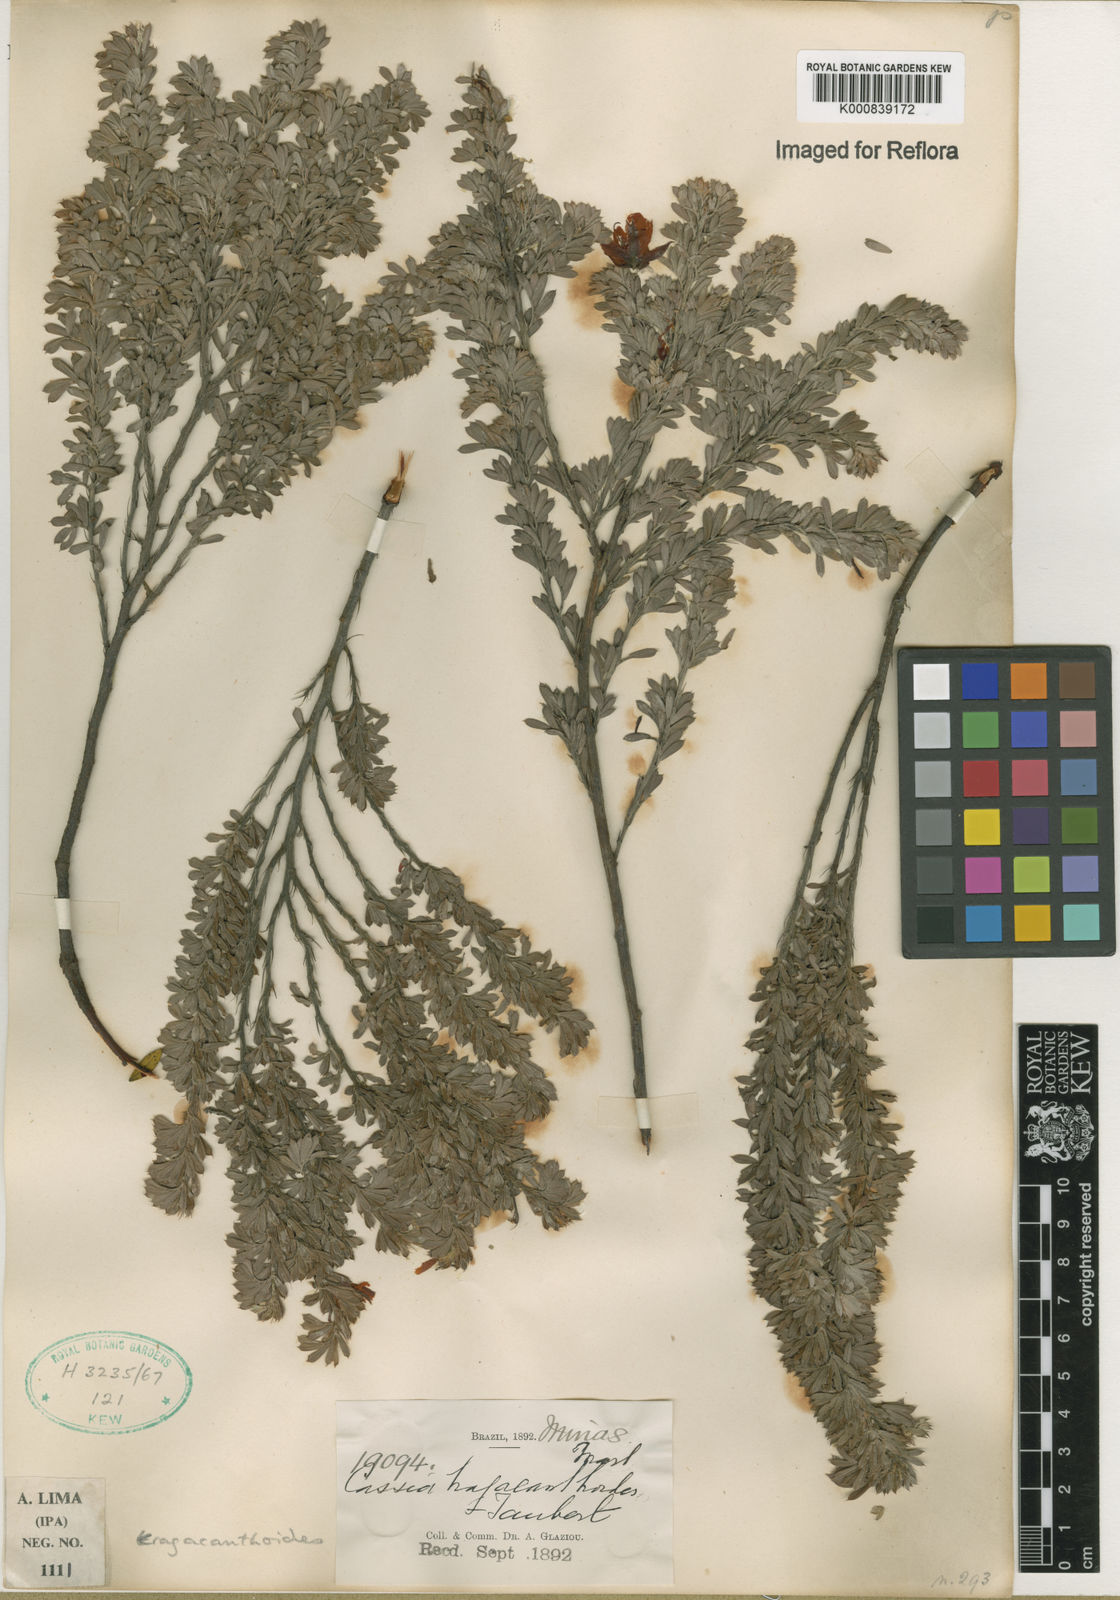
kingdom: Plantae
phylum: Tracheophyta
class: Magnoliopsida
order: Fabales
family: Fabaceae
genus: Chamaecrista
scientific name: Chamaecrista tragacanthoides
